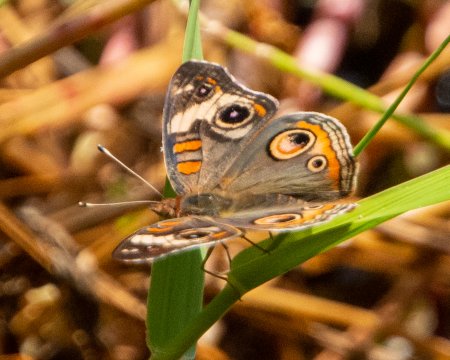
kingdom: Animalia
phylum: Arthropoda
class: Insecta
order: Lepidoptera
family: Nymphalidae
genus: Junonia
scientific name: Junonia coenia
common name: Common Buckeye
